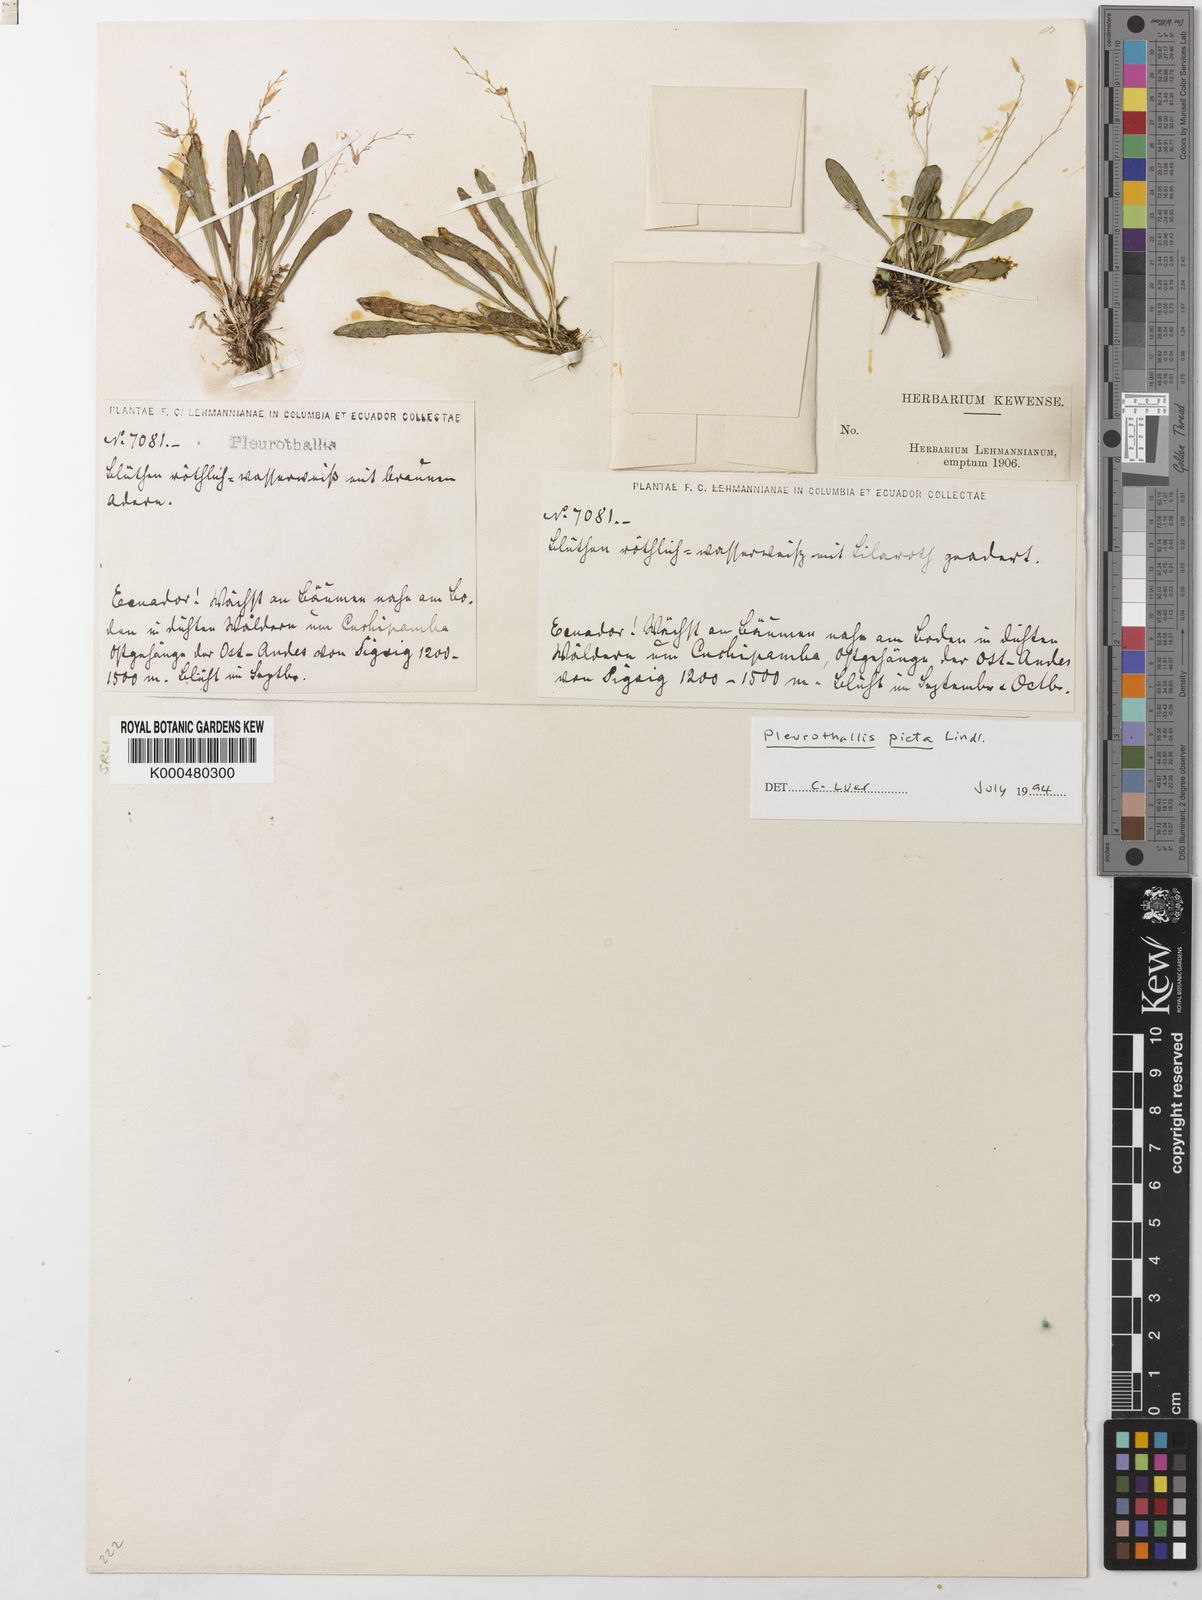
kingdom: Plantae
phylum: Tracheophyta
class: Liliopsida
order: Asparagales
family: Orchidaceae
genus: Specklinia
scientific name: Specklinia picta
